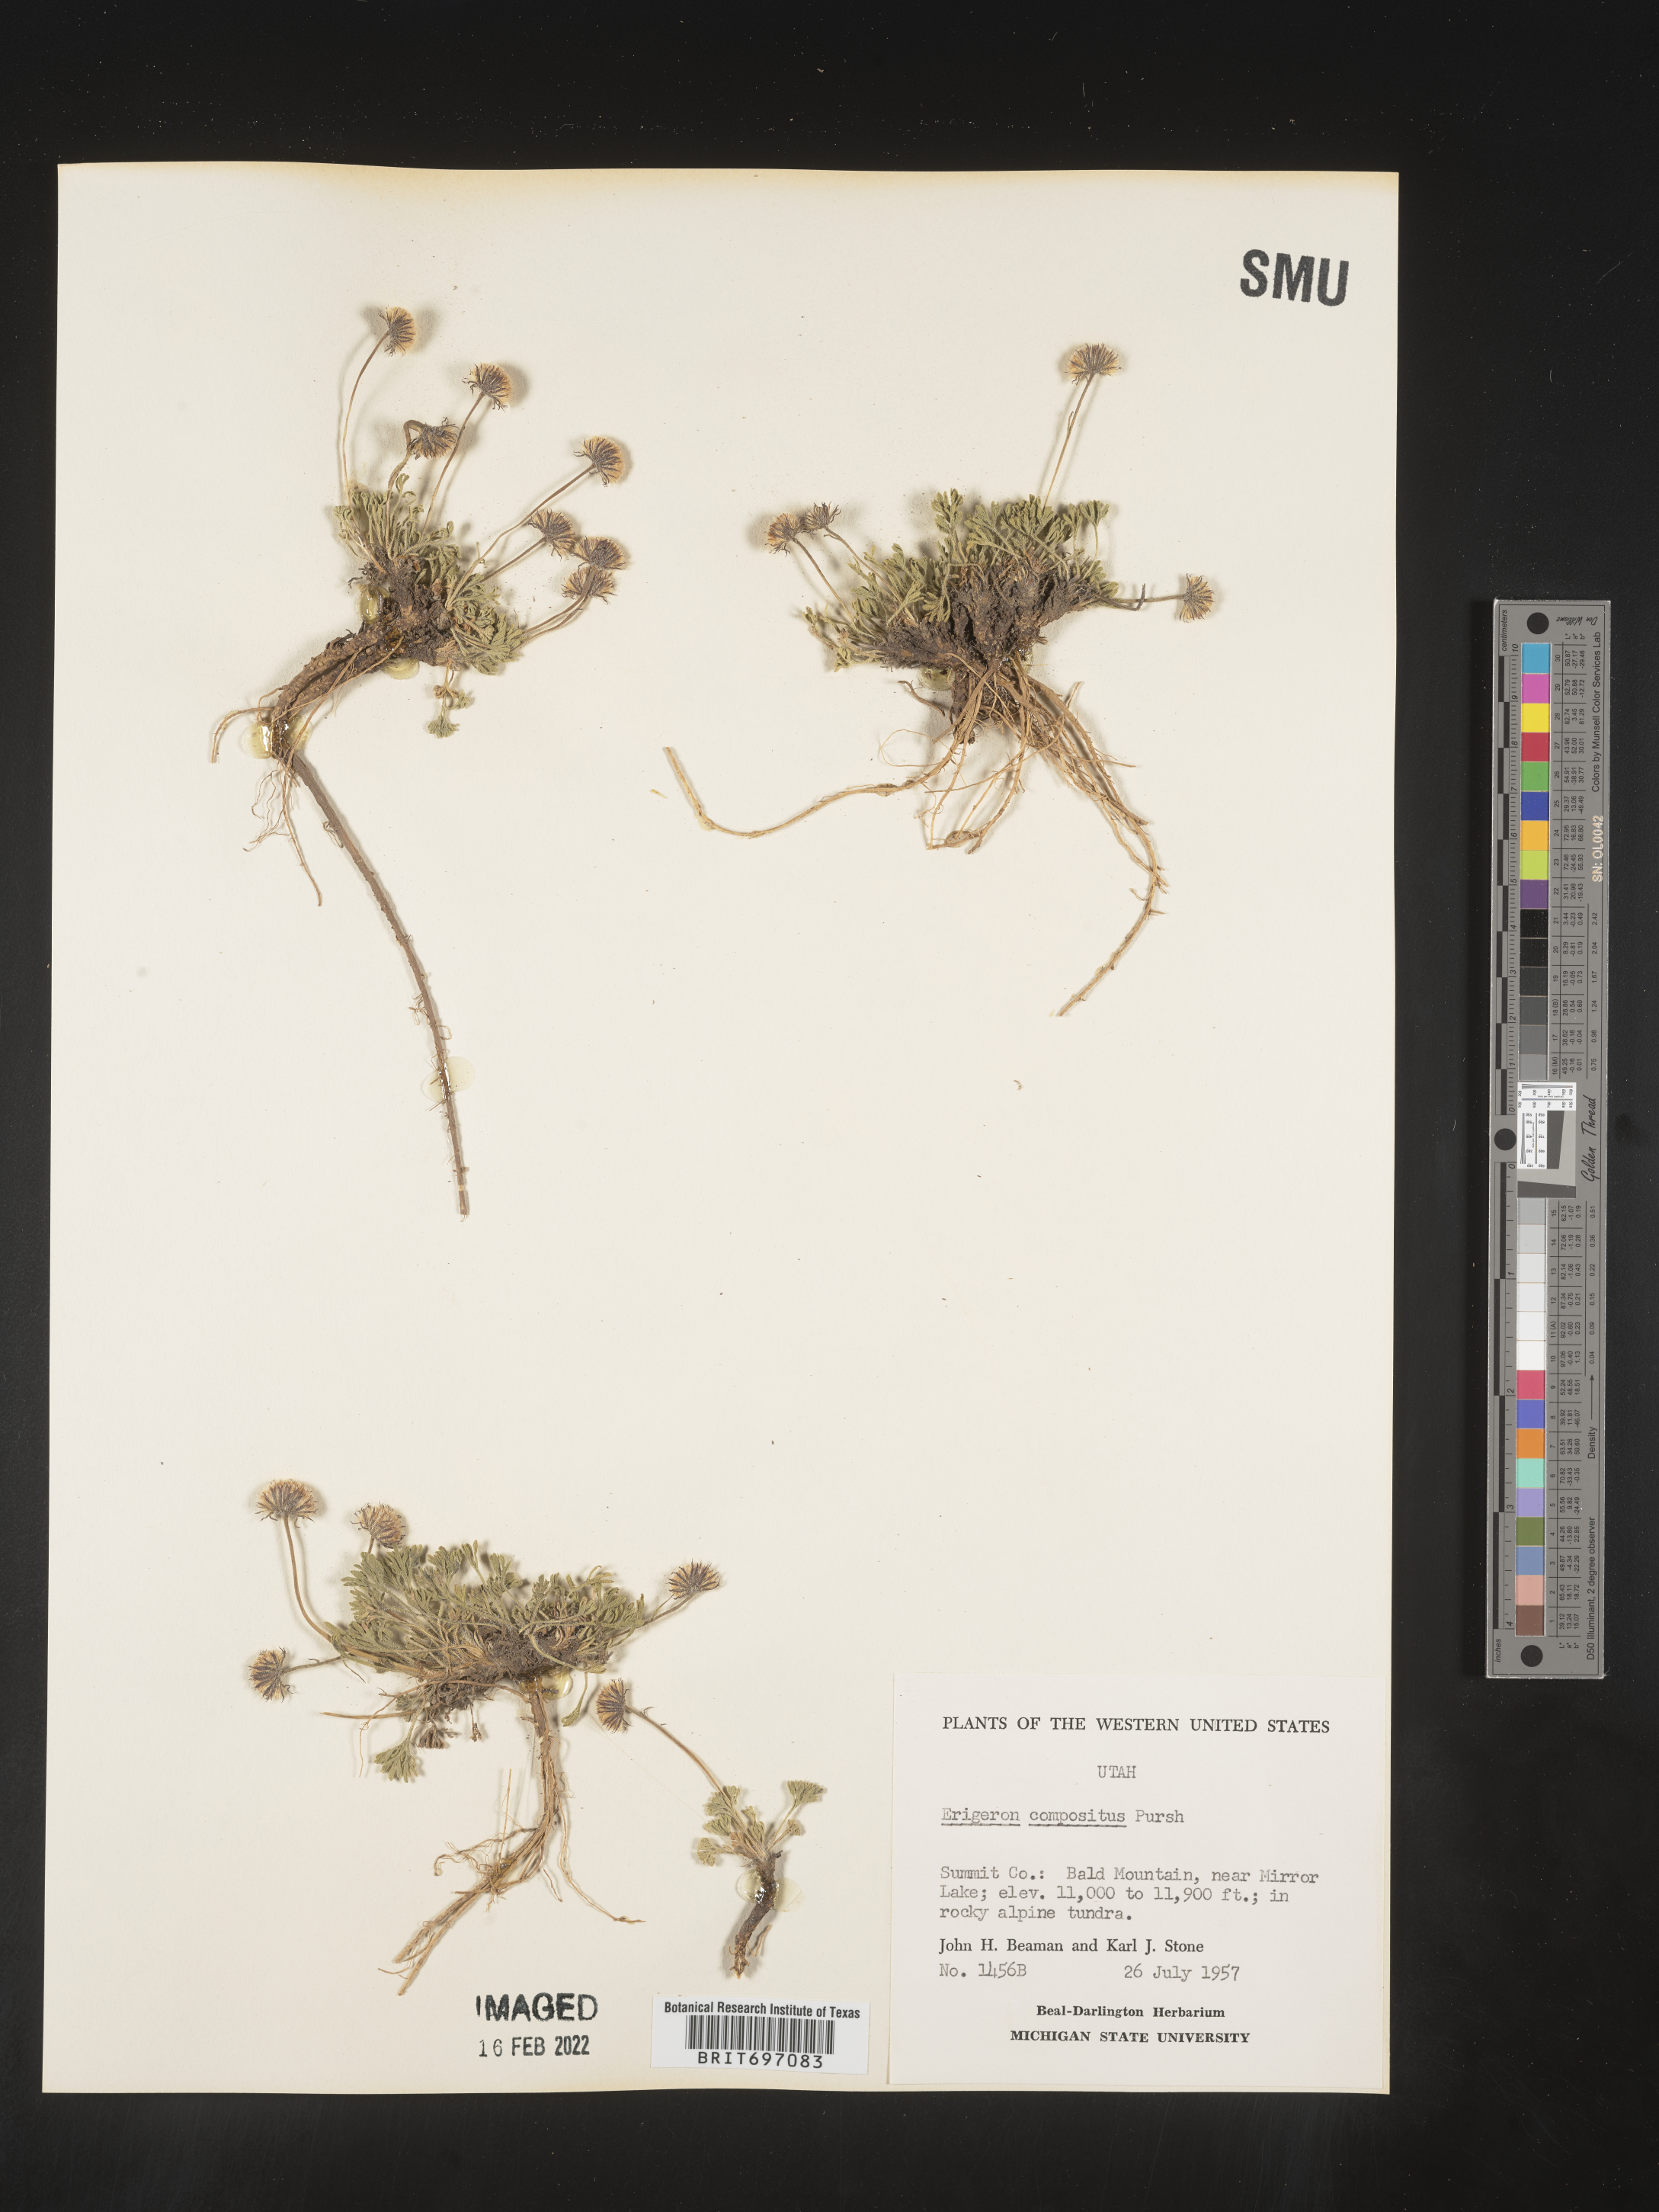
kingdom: Plantae
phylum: Tracheophyta
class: Magnoliopsida
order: Asterales
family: Asteraceae
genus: Erigeron
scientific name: Erigeron compositus
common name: Dwarf mountain fleabane
